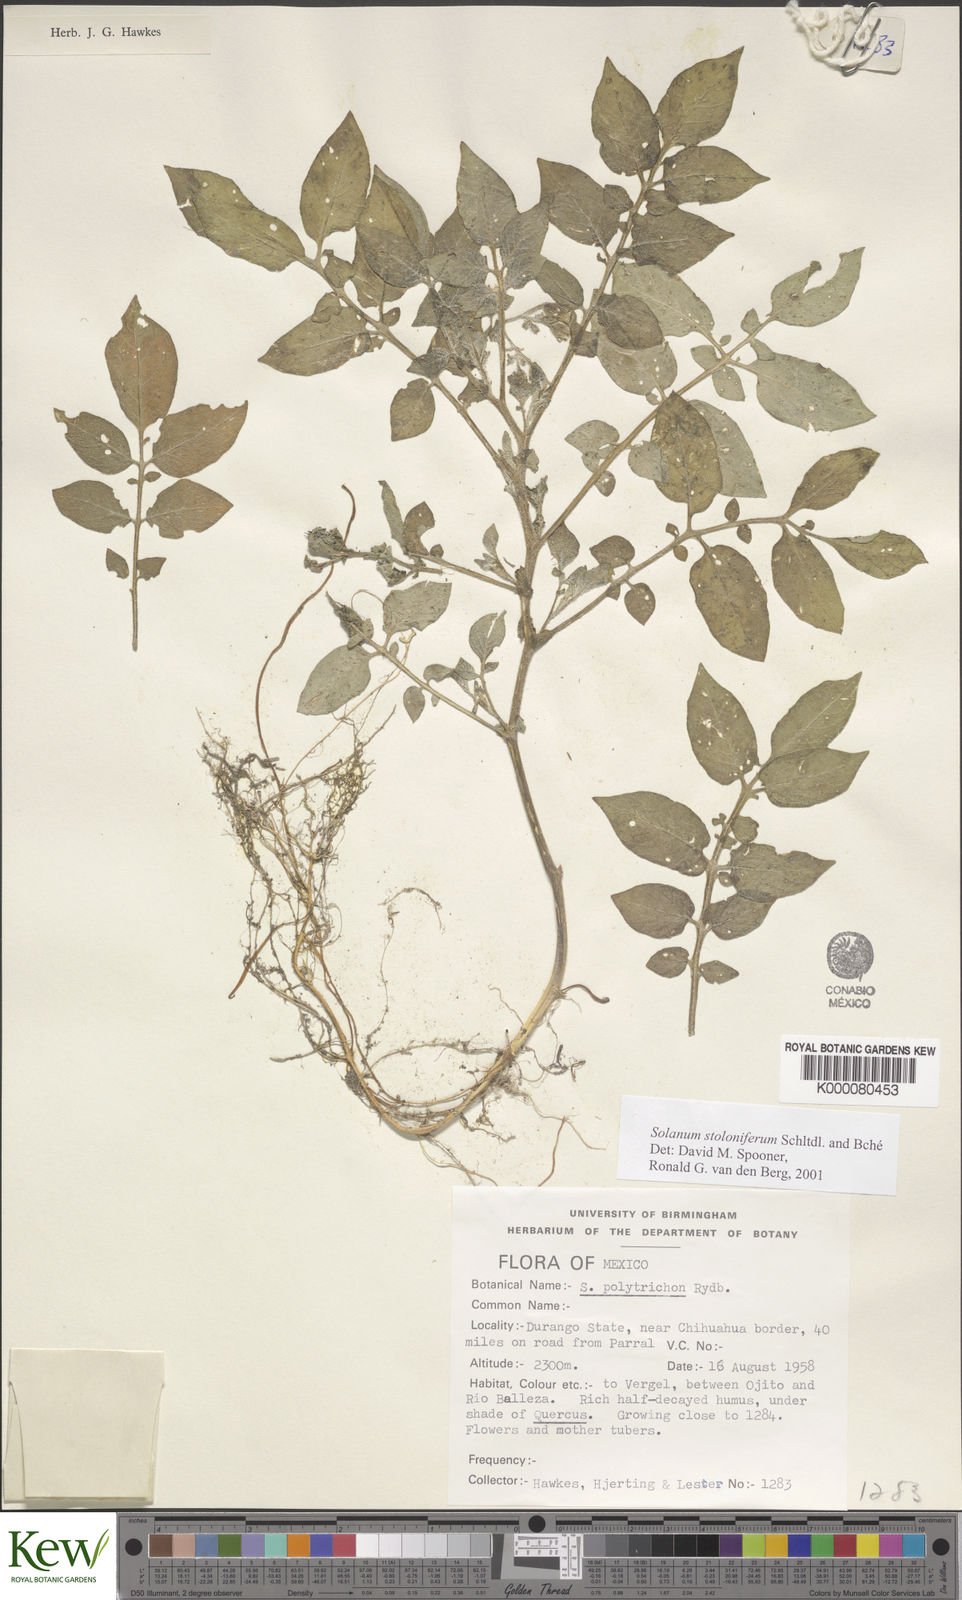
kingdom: Plantae
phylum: Tracheophyta
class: Magnoliopsida
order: Solanales
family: Solanaceae
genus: Solanum
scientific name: Solanum stoloniferum
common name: Fendler's nighshade
